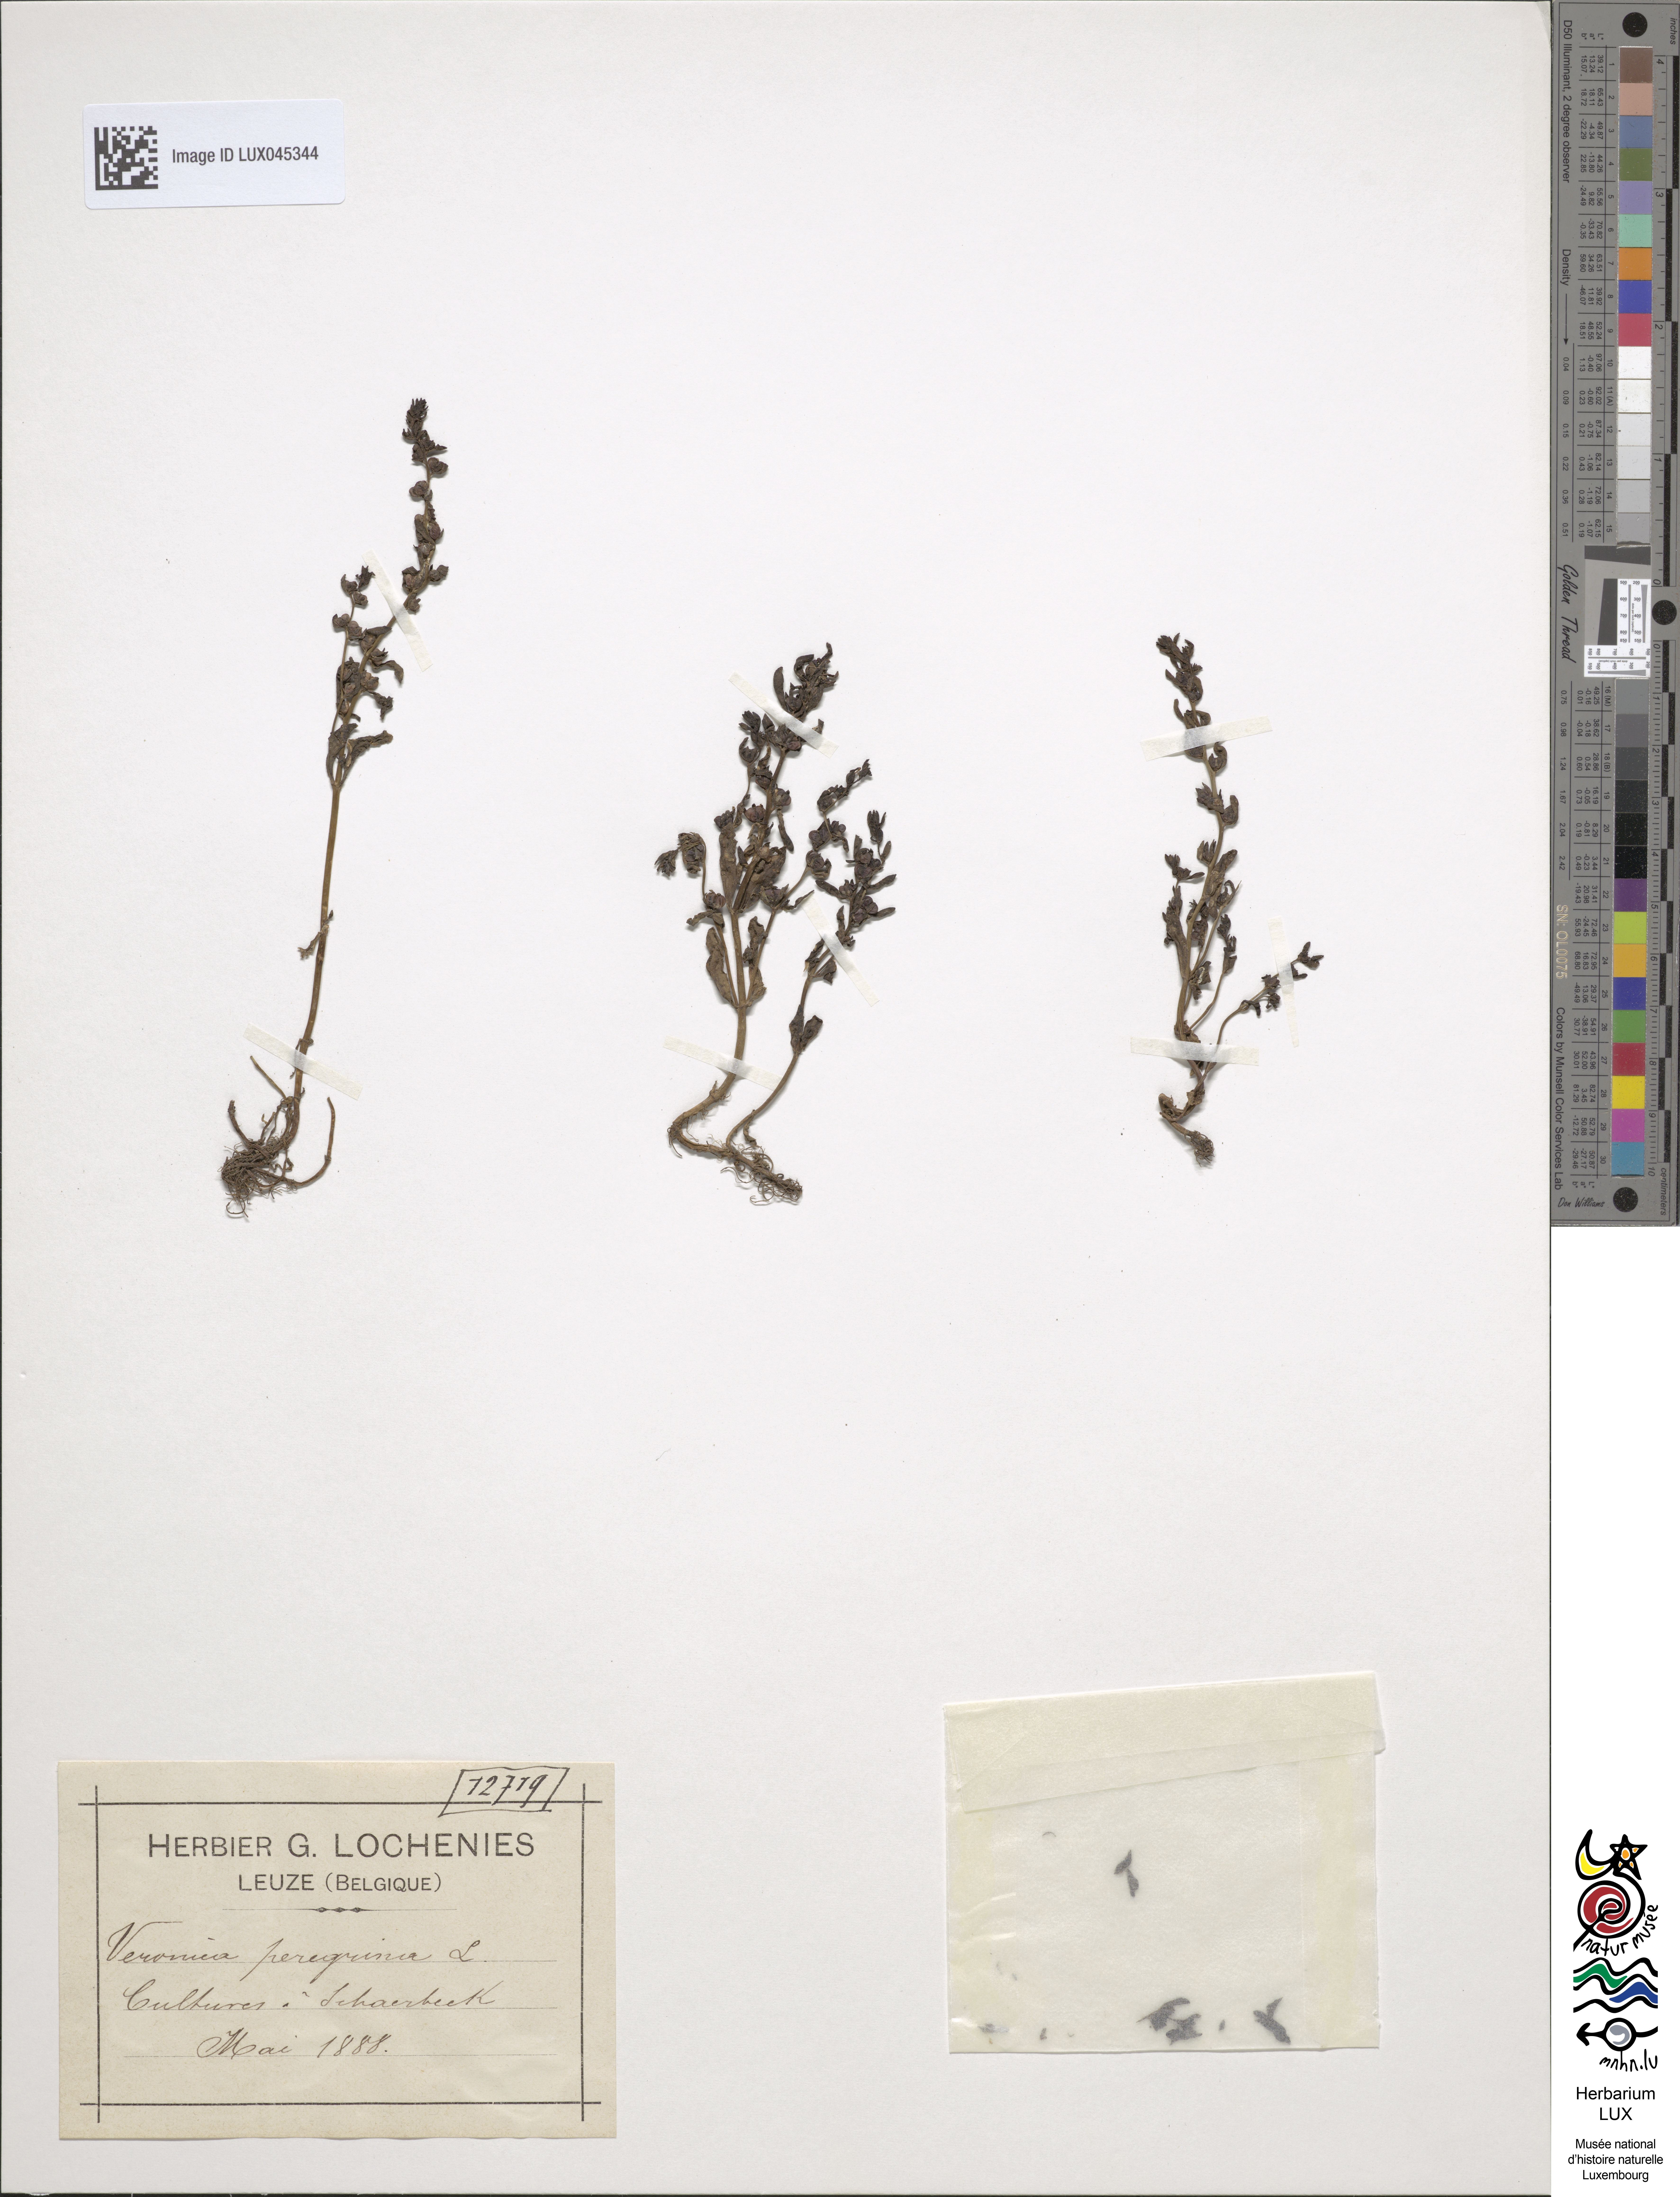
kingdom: Plantae
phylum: Tracheophyta
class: Magnoliopsida
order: Lamiales
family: Plantaginaceae
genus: Veronica
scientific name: Veronica peregrina
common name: Neckweed
